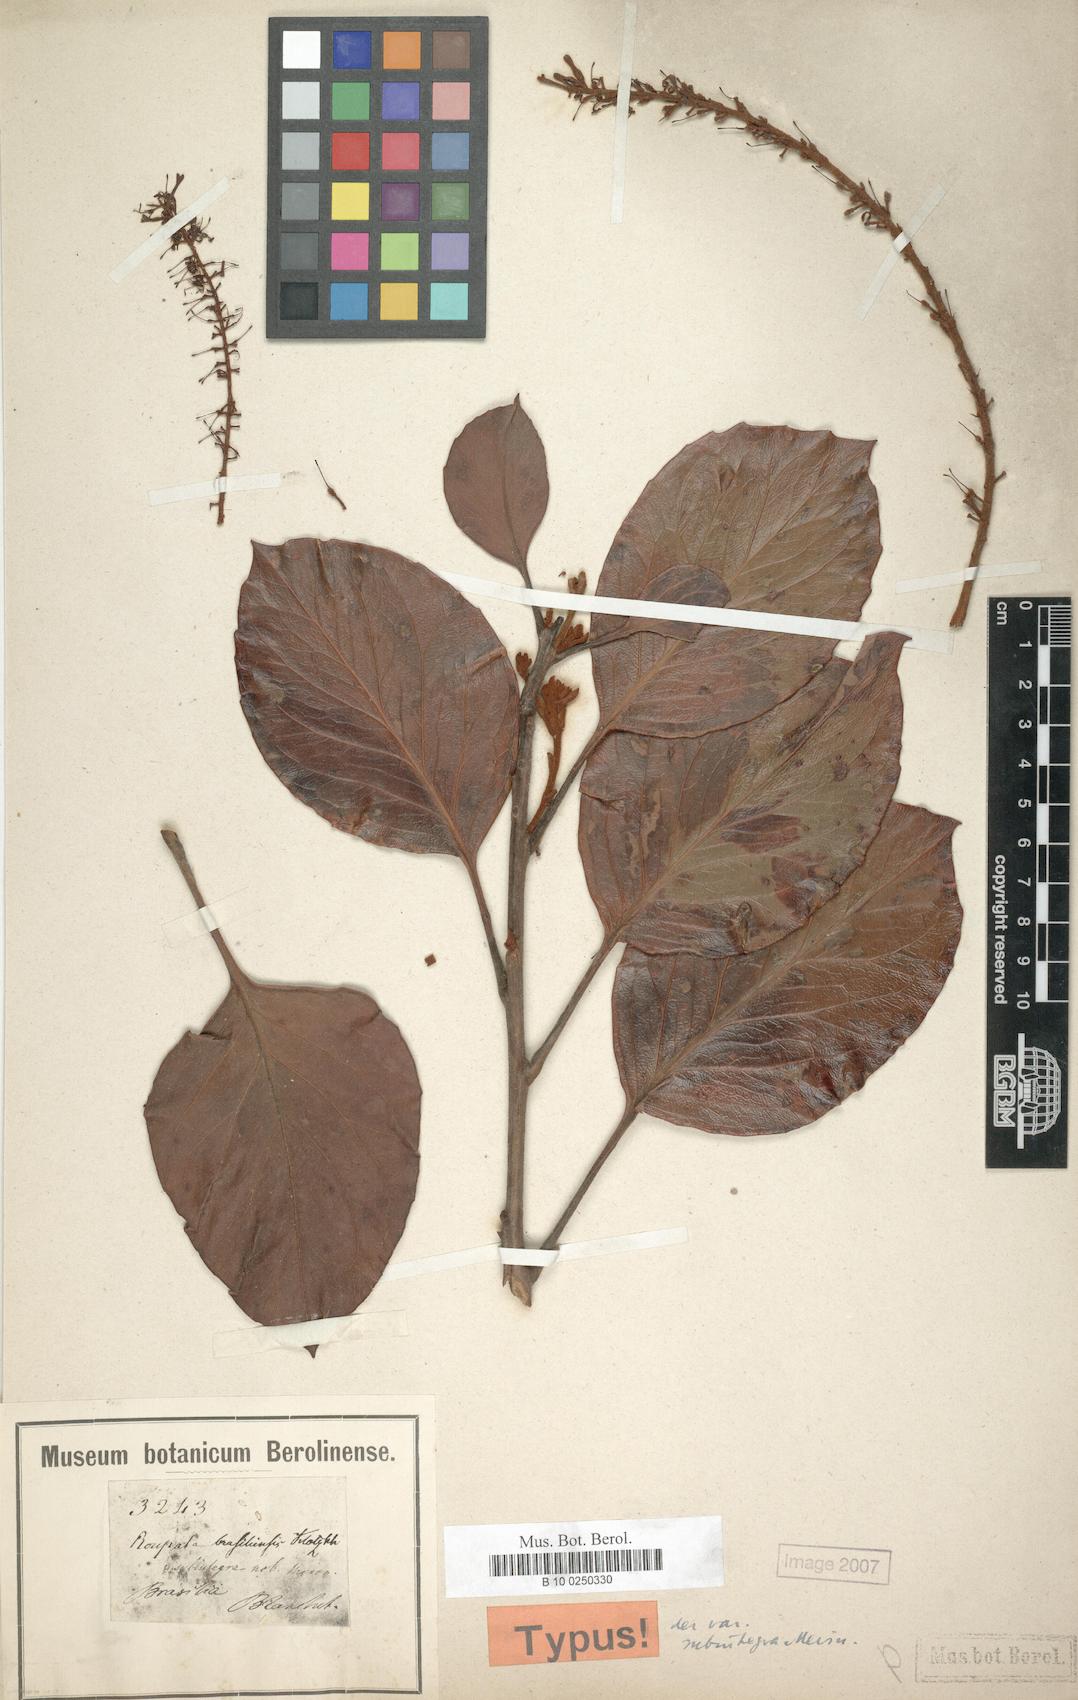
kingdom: Plantae
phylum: Tracheophyta
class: Magnoliopsida
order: Proteales
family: Proteaceae
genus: Roupala
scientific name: Roupala montana
